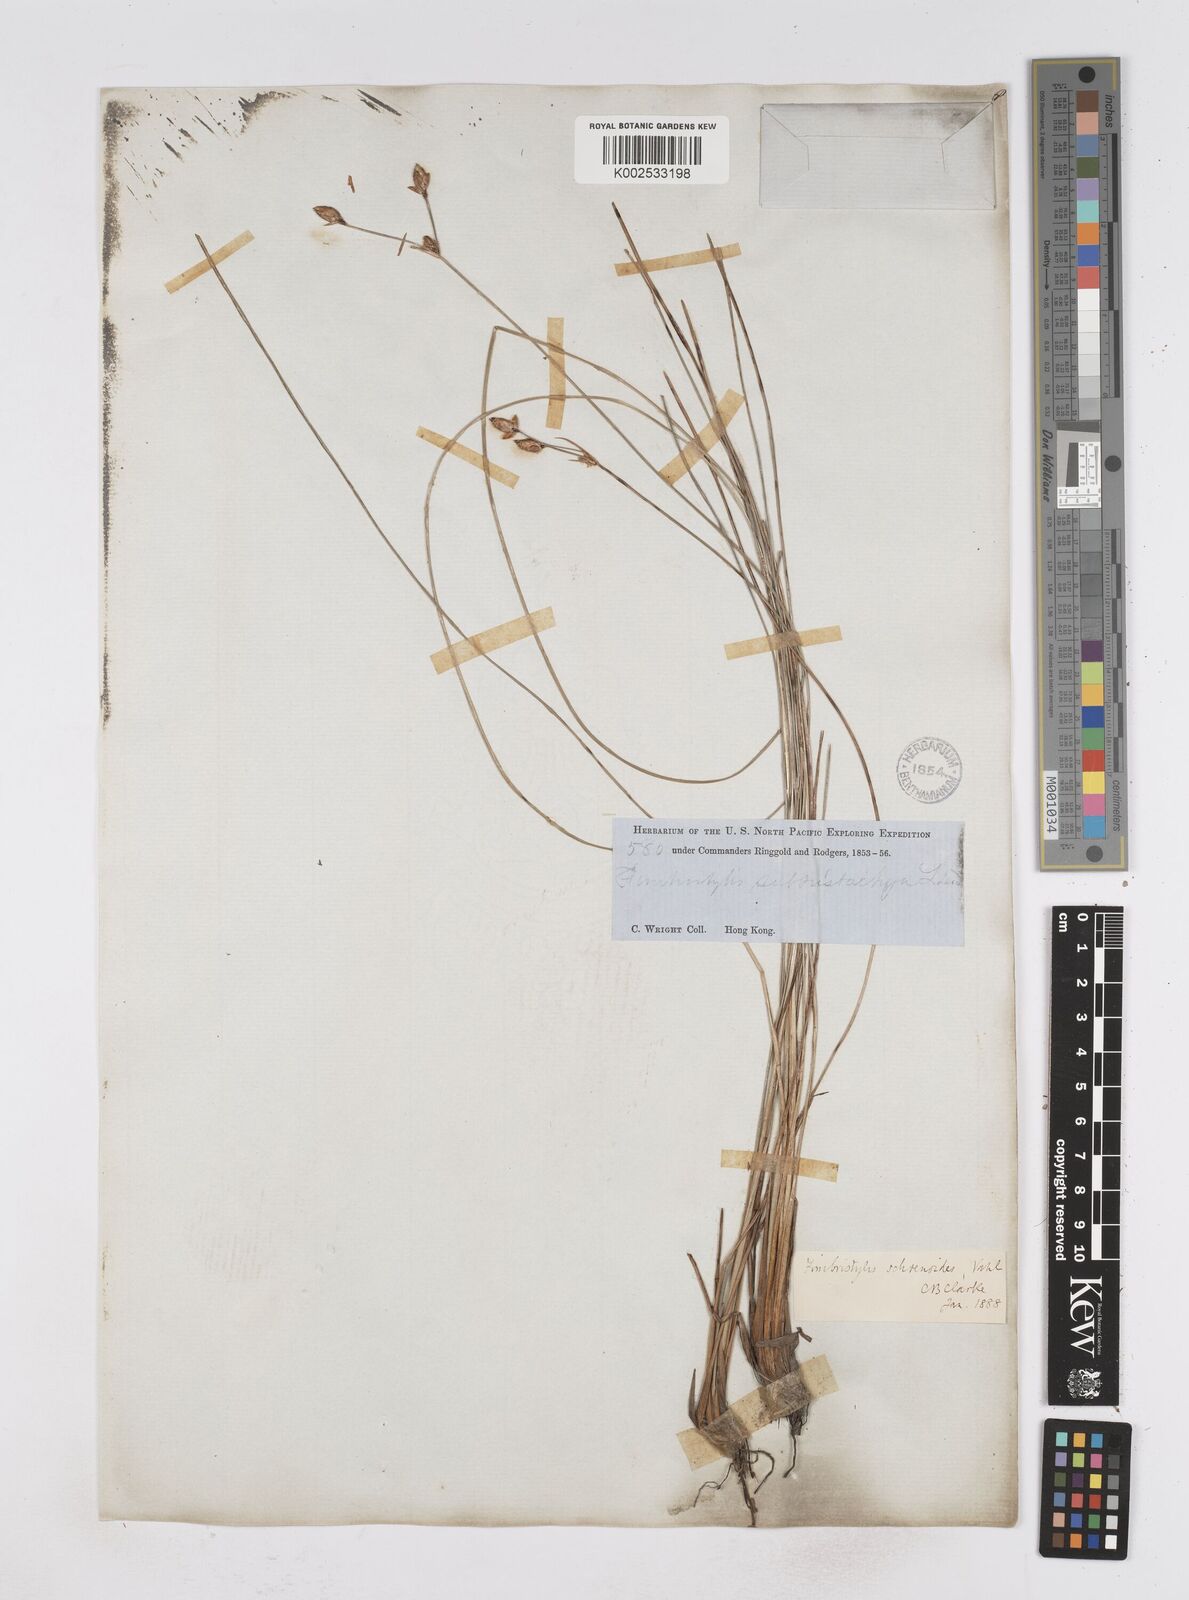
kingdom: Plantae
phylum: Tracheophyta
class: Liliopsida
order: Poales
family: Cyperaceae
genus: Fimbristylis
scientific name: Fimbristylis schoenoides
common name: Ditch fimbry
